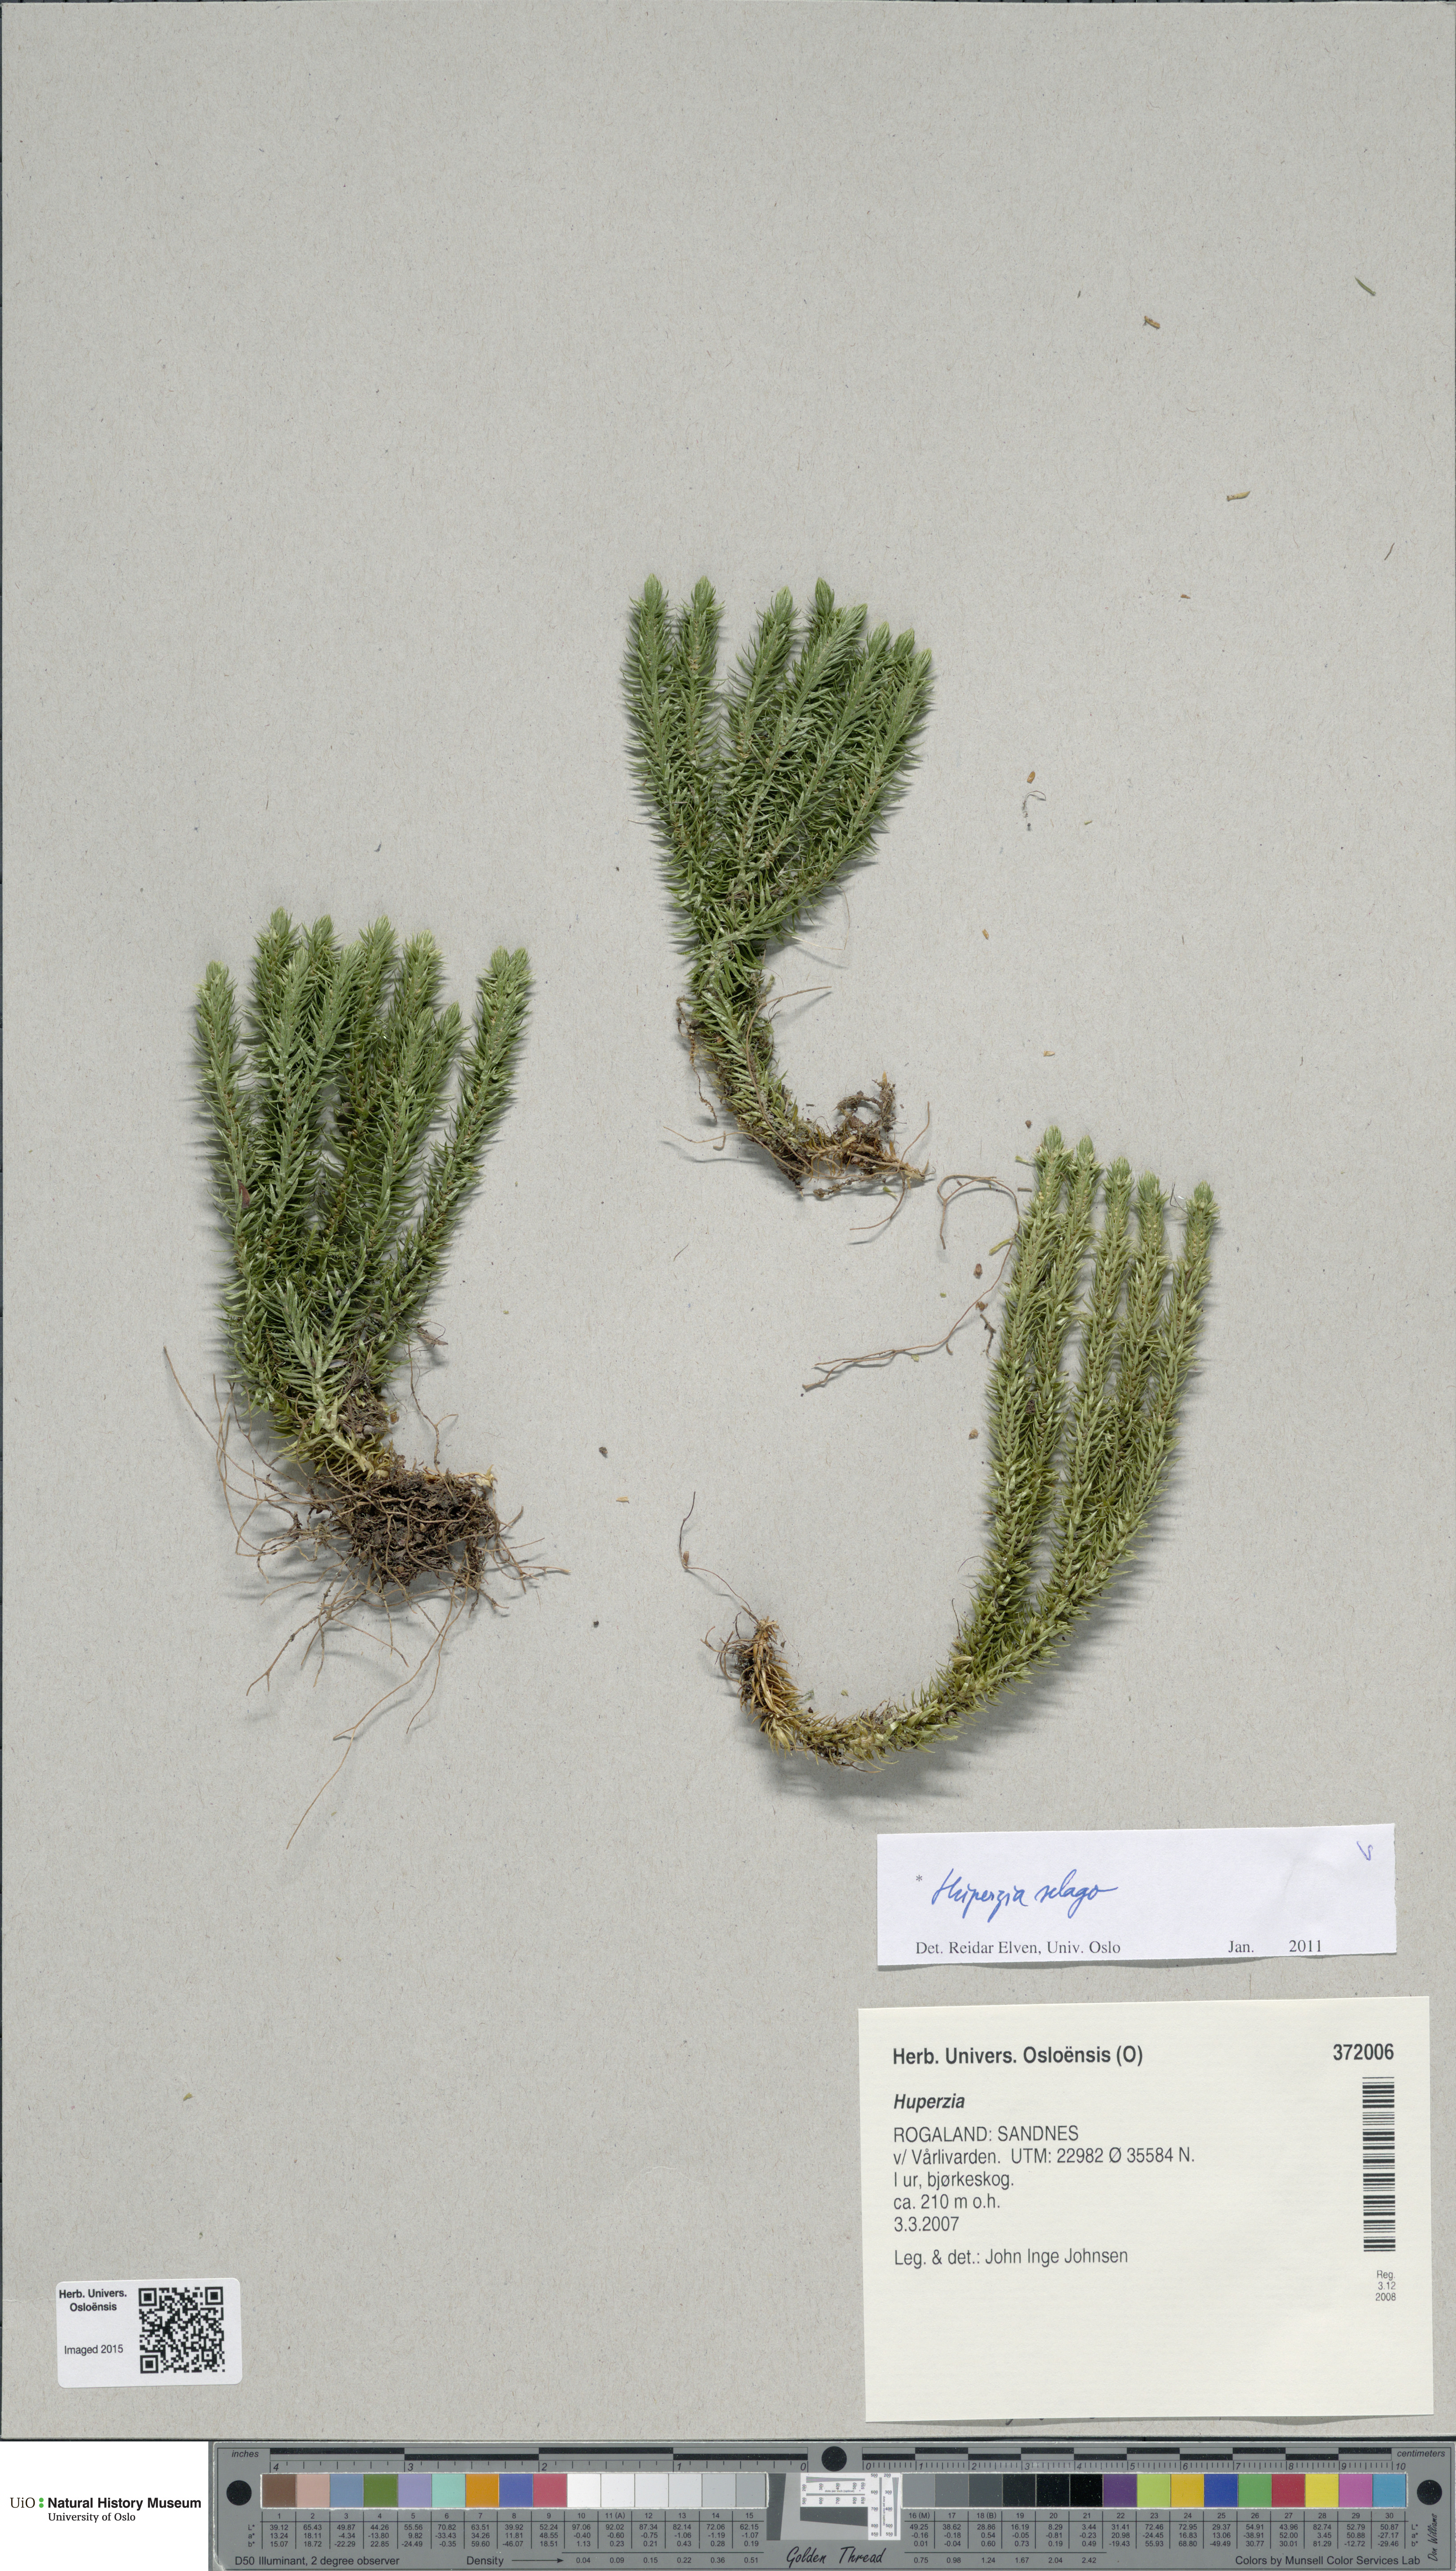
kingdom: Plantae
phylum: Tracheophyta
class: Lycopodiopsida
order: Lycopodiales
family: Lycopodiaceae
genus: Huperzia
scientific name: Huperzia selago
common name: Northern firmoss
